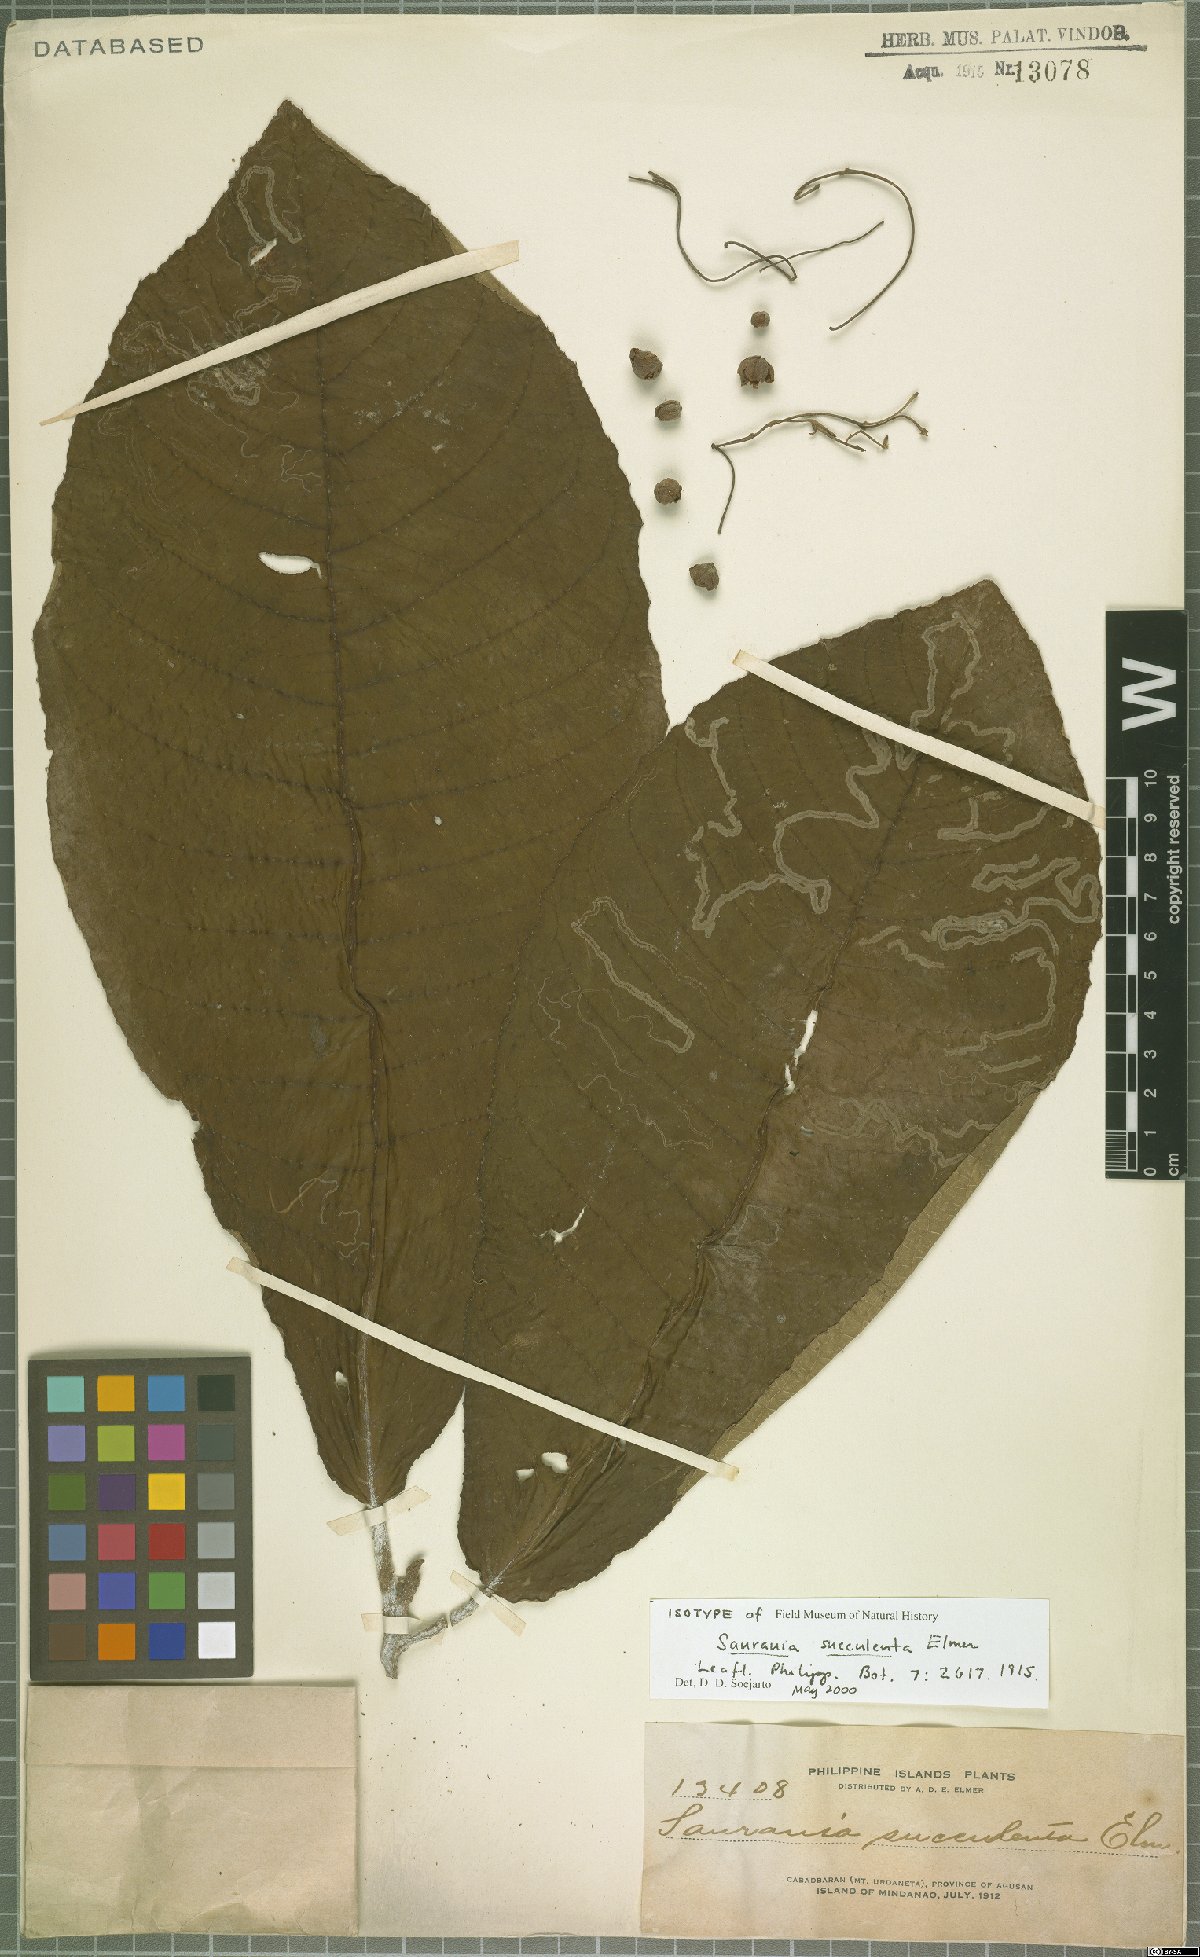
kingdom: Plantae
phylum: Tracheophyta
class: Magnoliopsida
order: Ericales
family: Actinidiaceae
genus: Saurauia
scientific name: Saurauia ampla
